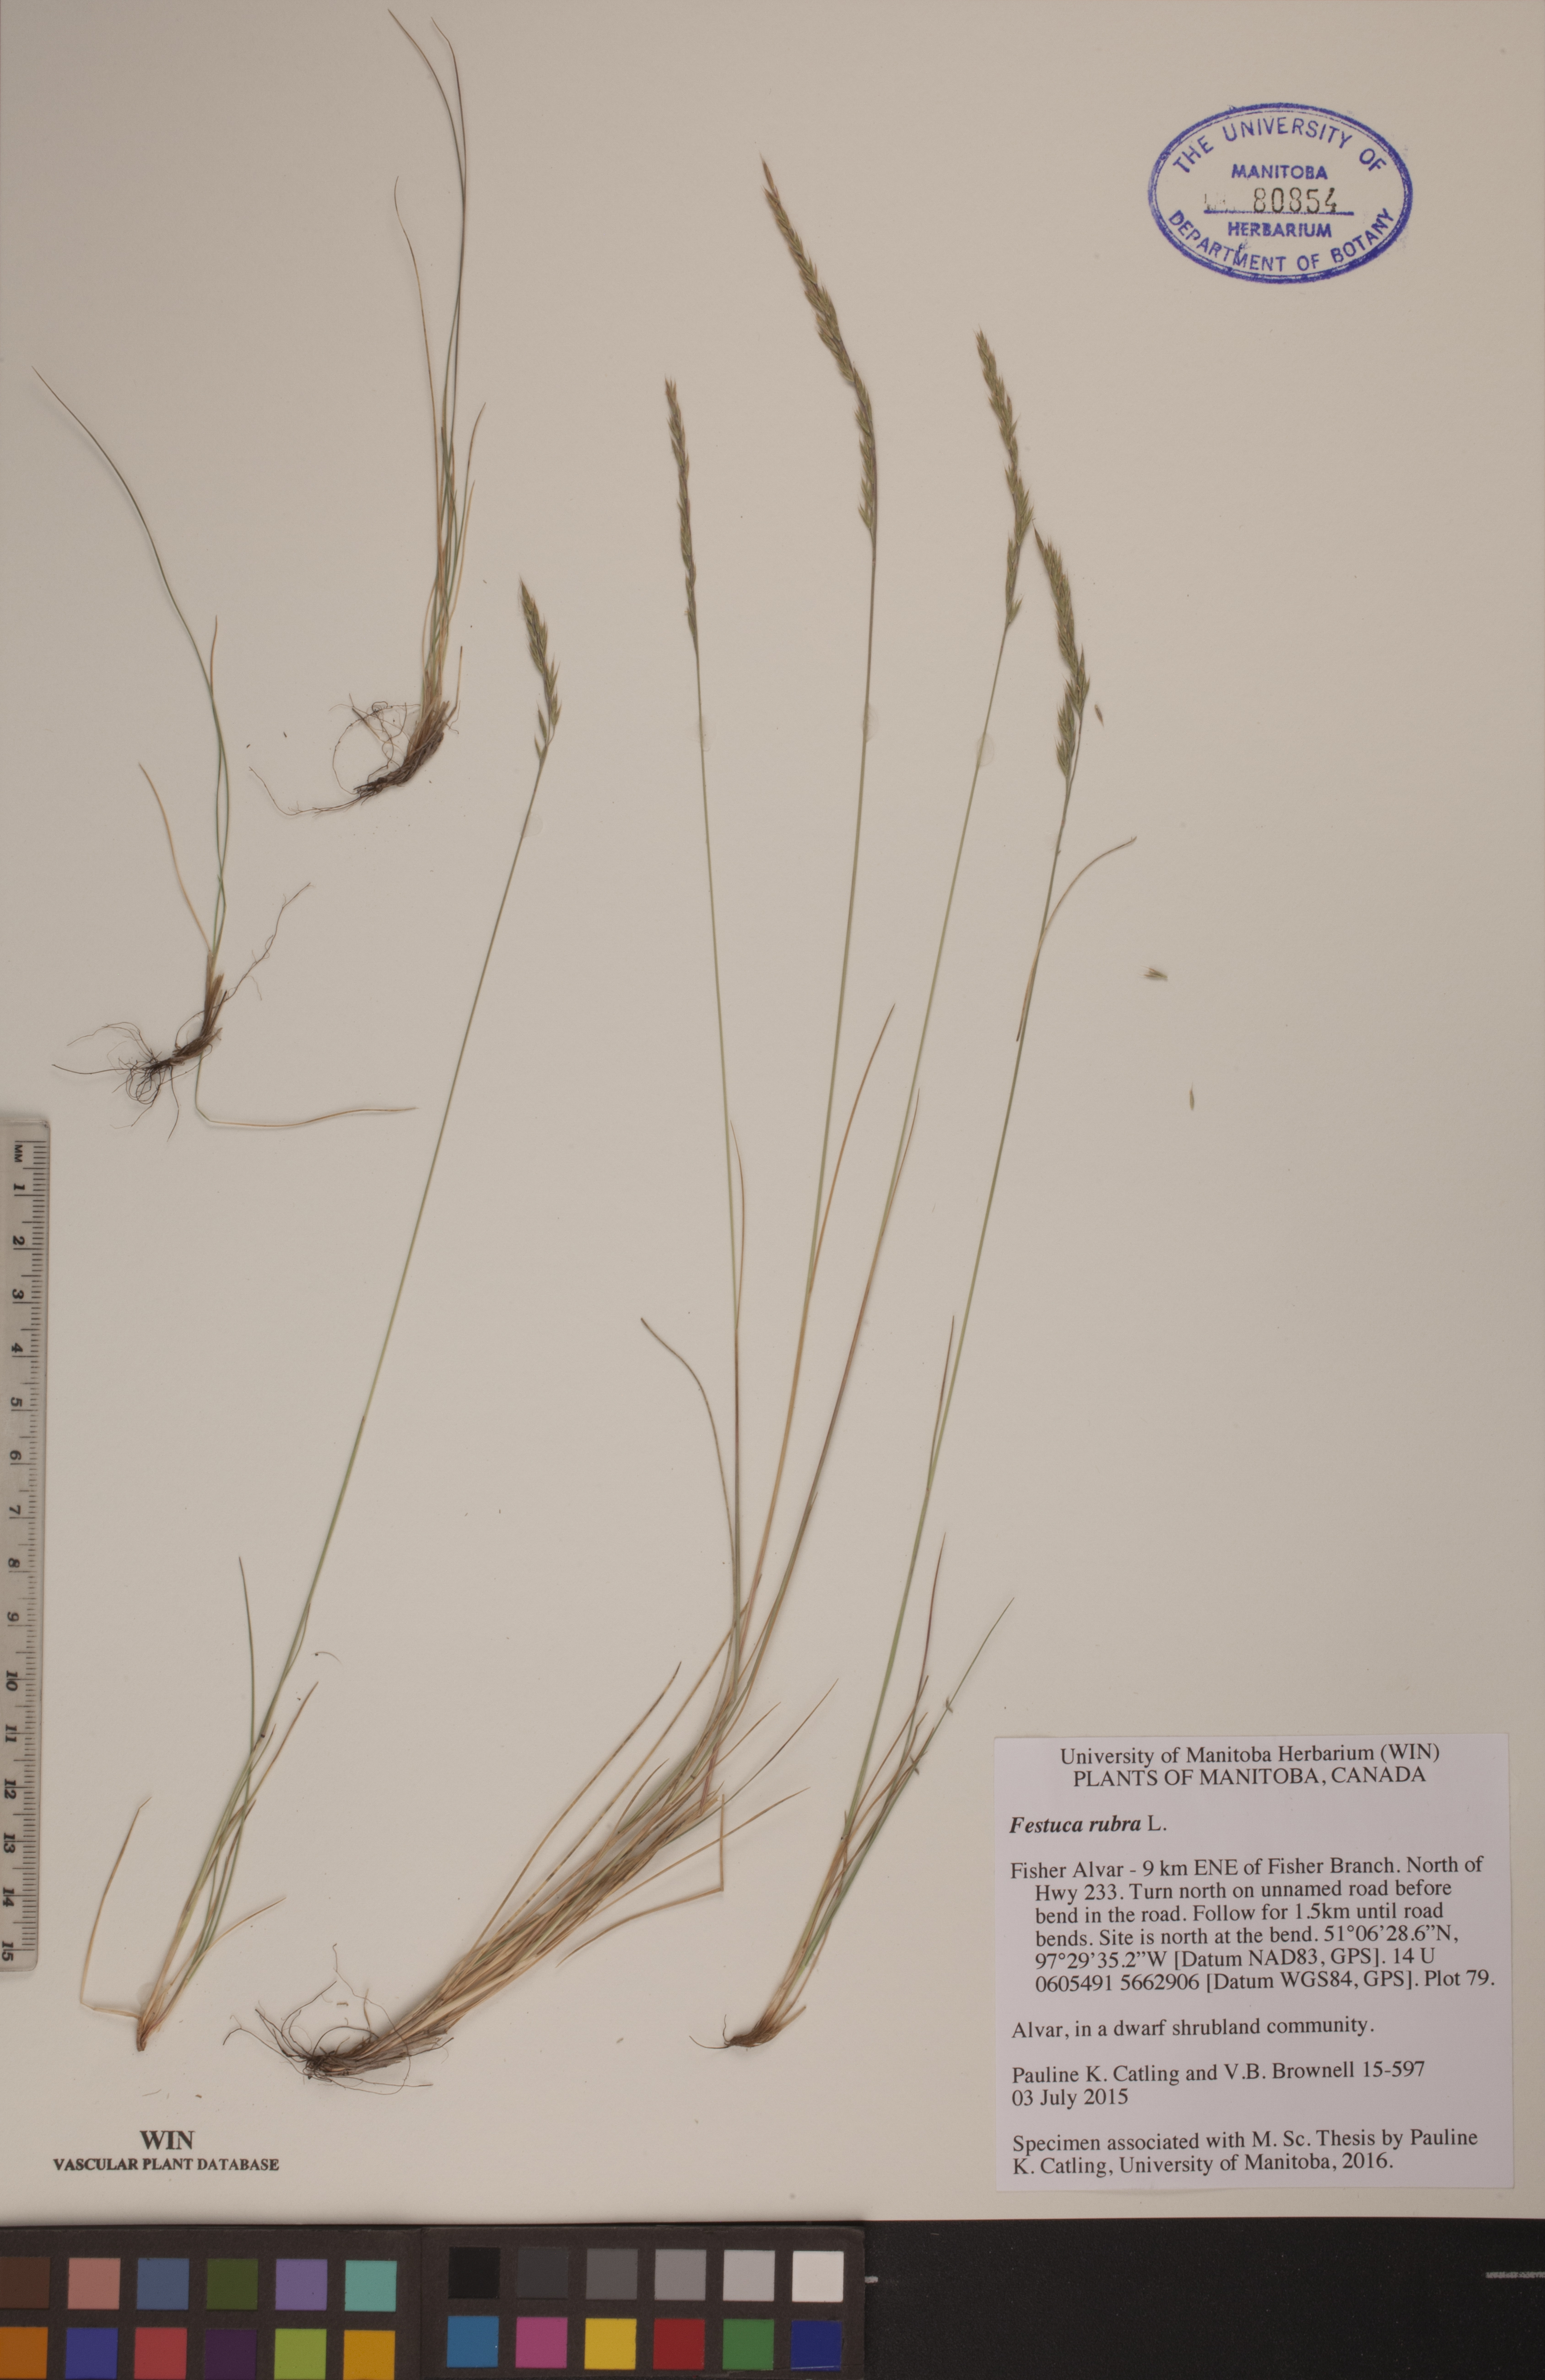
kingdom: Plantae
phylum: Tracheophyta
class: Liliopsida
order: Poales
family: Poaceae
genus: Festuca
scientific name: Festuca rubra
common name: Red fescue
